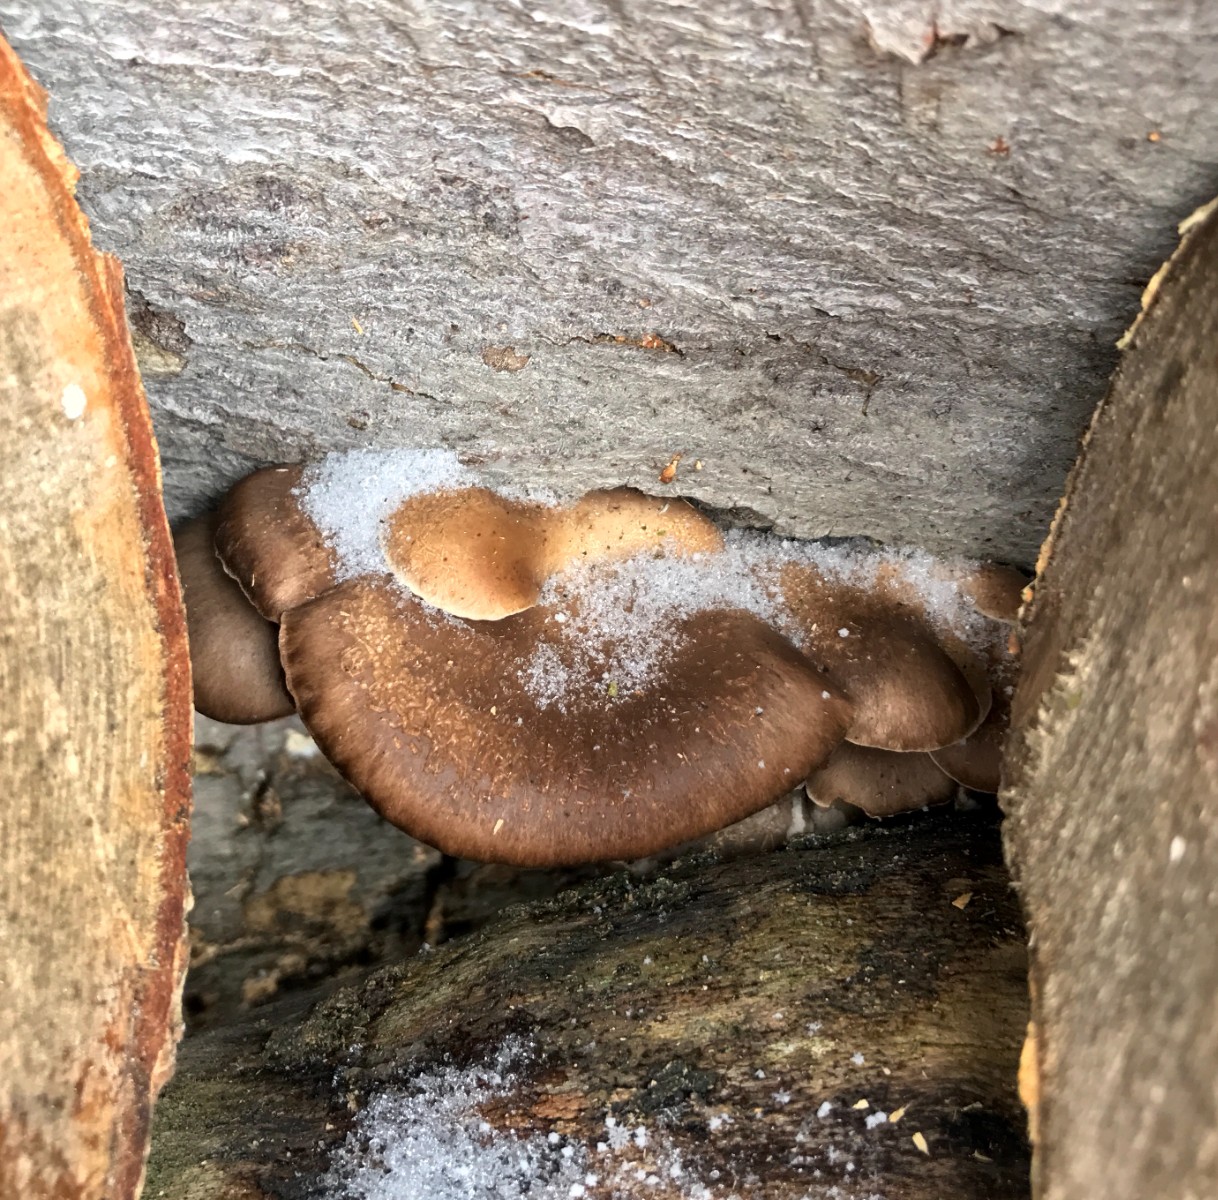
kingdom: Fungi
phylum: Basidiomycota
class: Agaricomycetes
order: Agaricales
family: Pleurotaceae
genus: Pleurotus
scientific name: Pleurotus ostreatus
